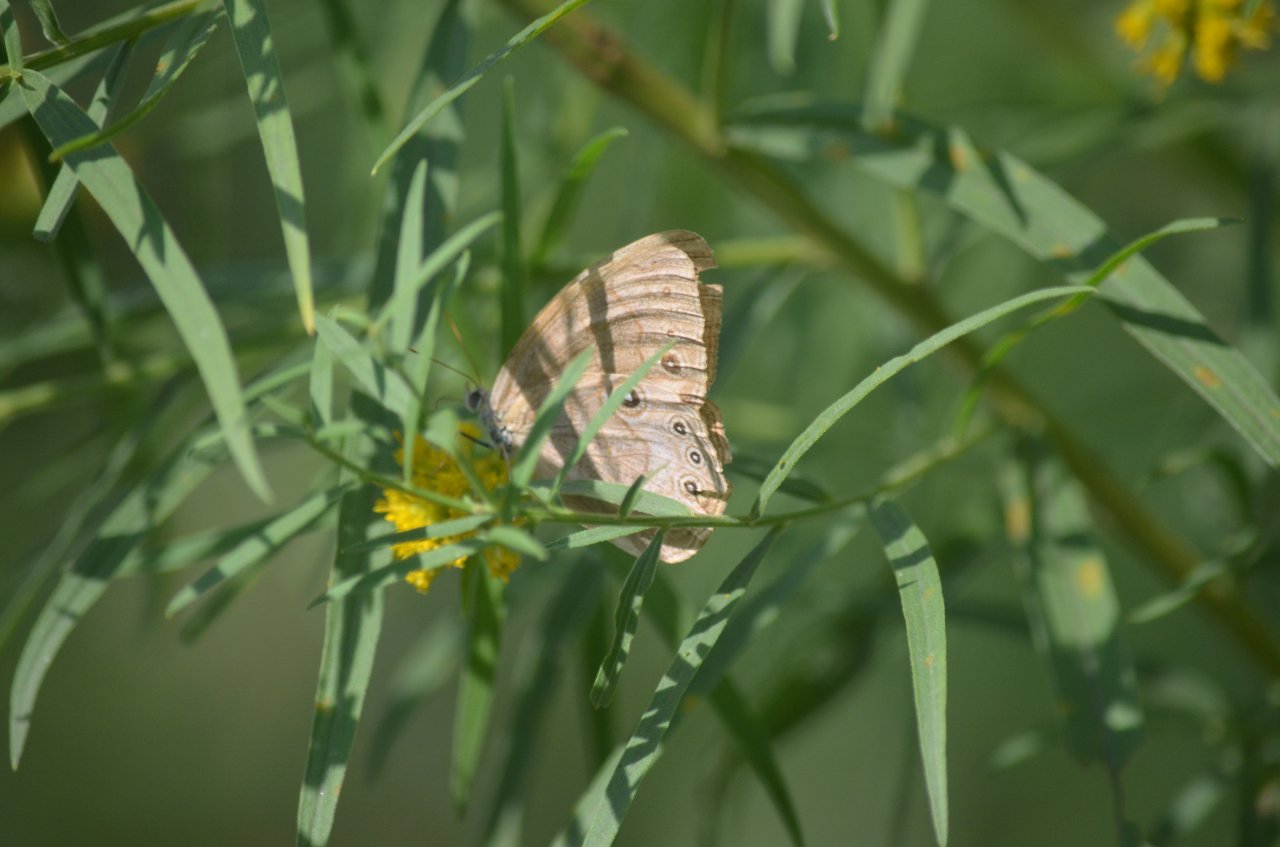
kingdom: Animalia
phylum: Arthropoda
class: Insecta
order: Lepidoptera
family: Nymphalidae
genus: Lethe
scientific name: Lethe eurydice
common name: Appalachian Eyed Brown
